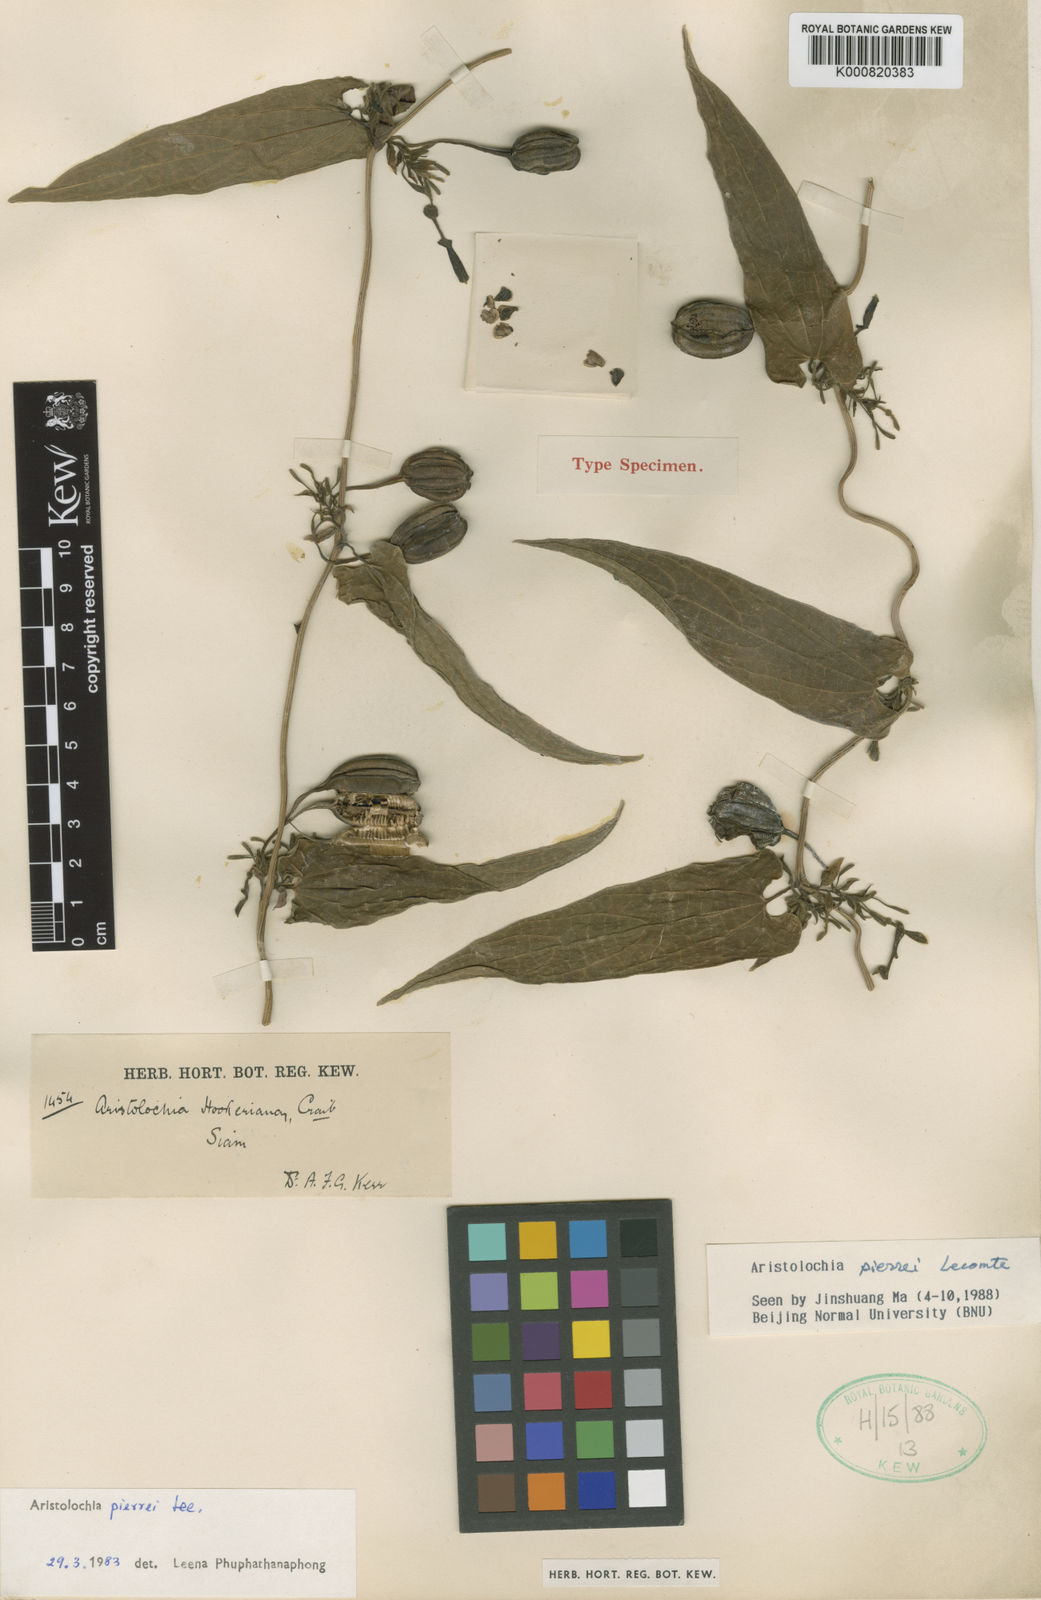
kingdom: Plantae
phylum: Tracheophyta
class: Magnoliopsida
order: Piperales
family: Aristolochiaceae
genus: Aristolochia
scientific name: Aristolochia pierrei
